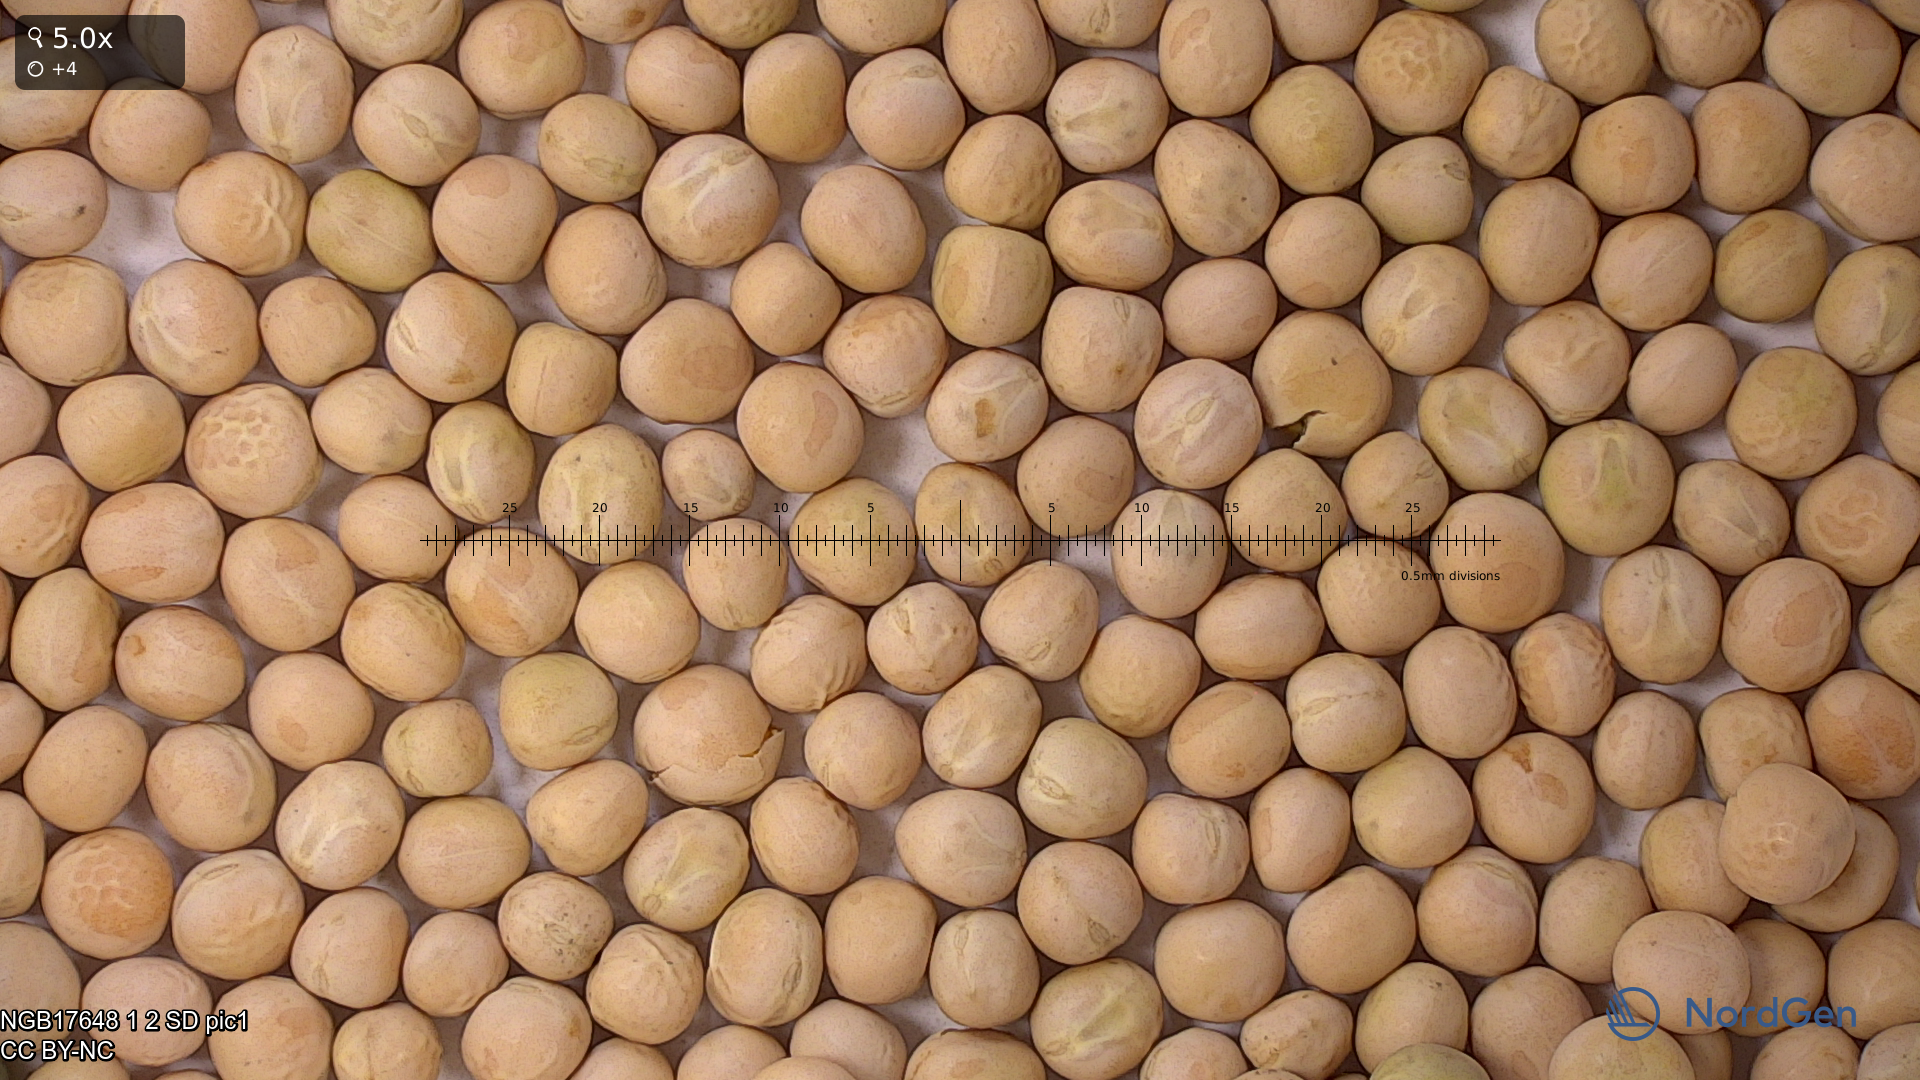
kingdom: Plantae
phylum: Tracheophyta
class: Magnoliopsida
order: Fabales
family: Fabaceae
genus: Lathyrus
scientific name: Lathyrus oleraceus
